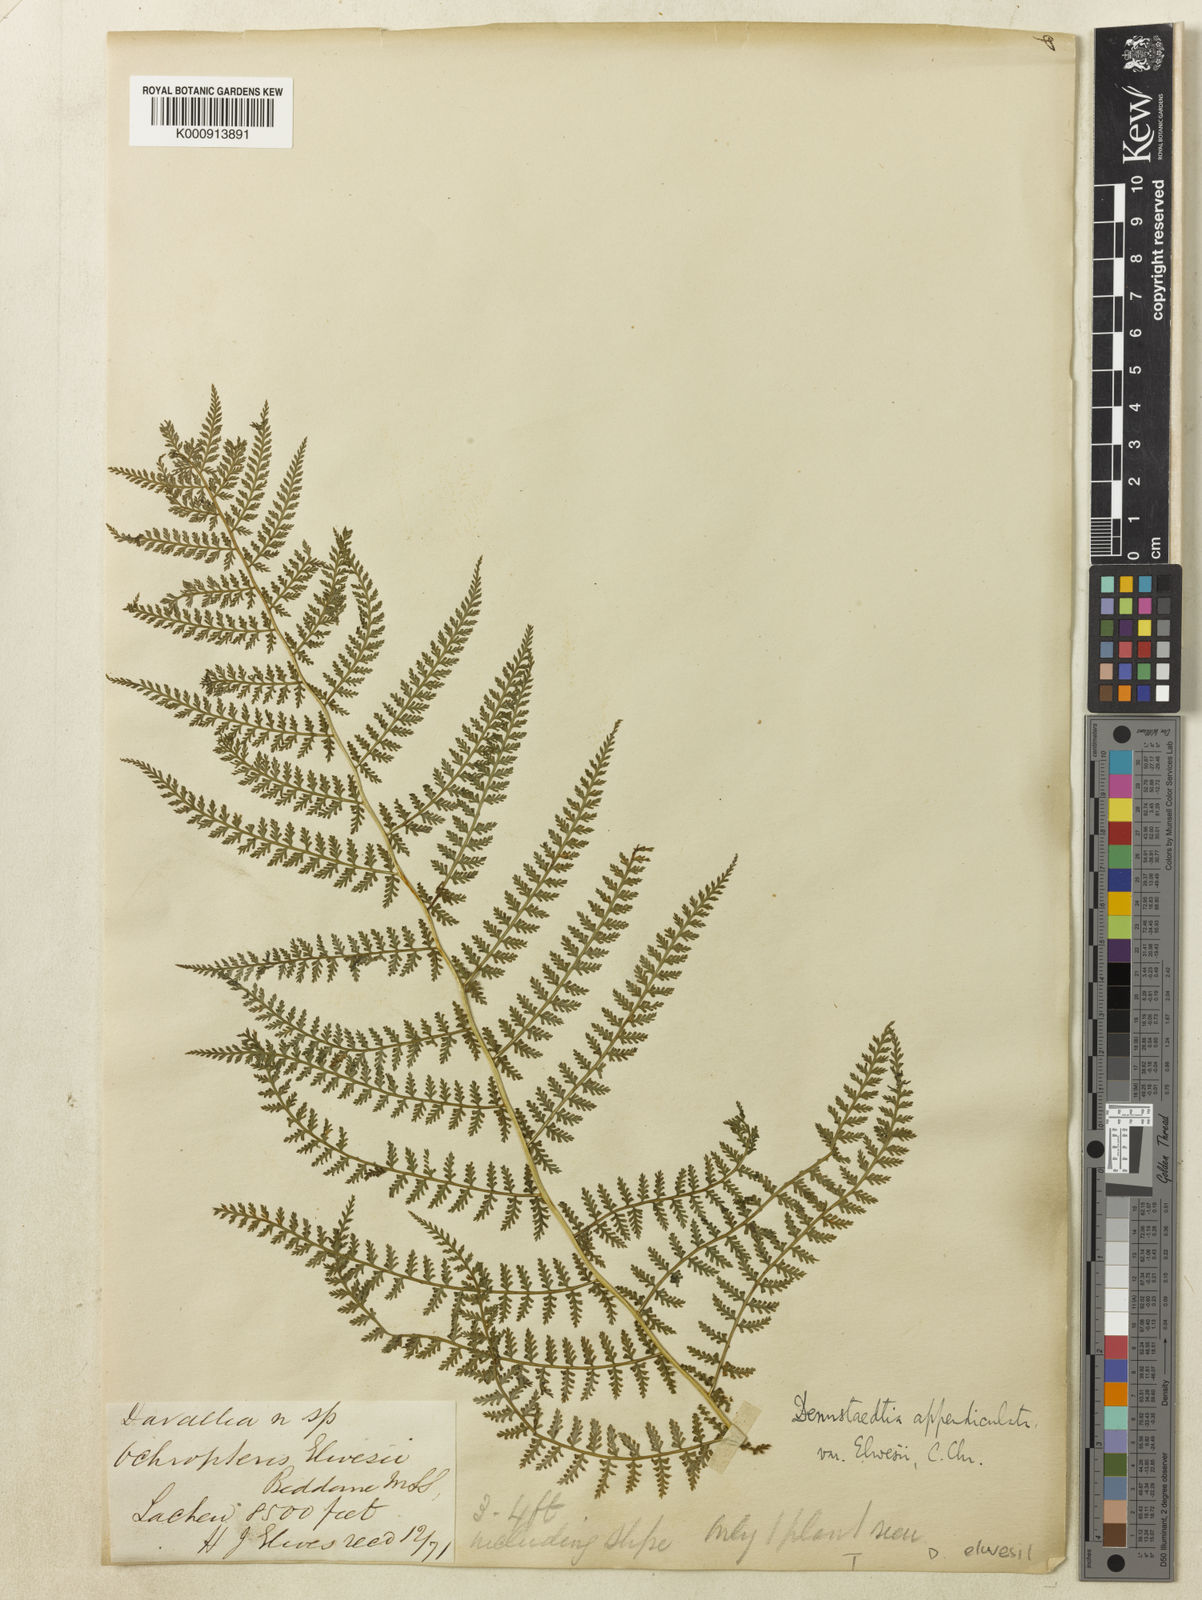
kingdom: Plantae
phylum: Tracheophyta
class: Polypodiopsida
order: Polypodiales
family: Dennstaedtiaceae
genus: Sitobolium
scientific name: Sitobolium appendiculatum
